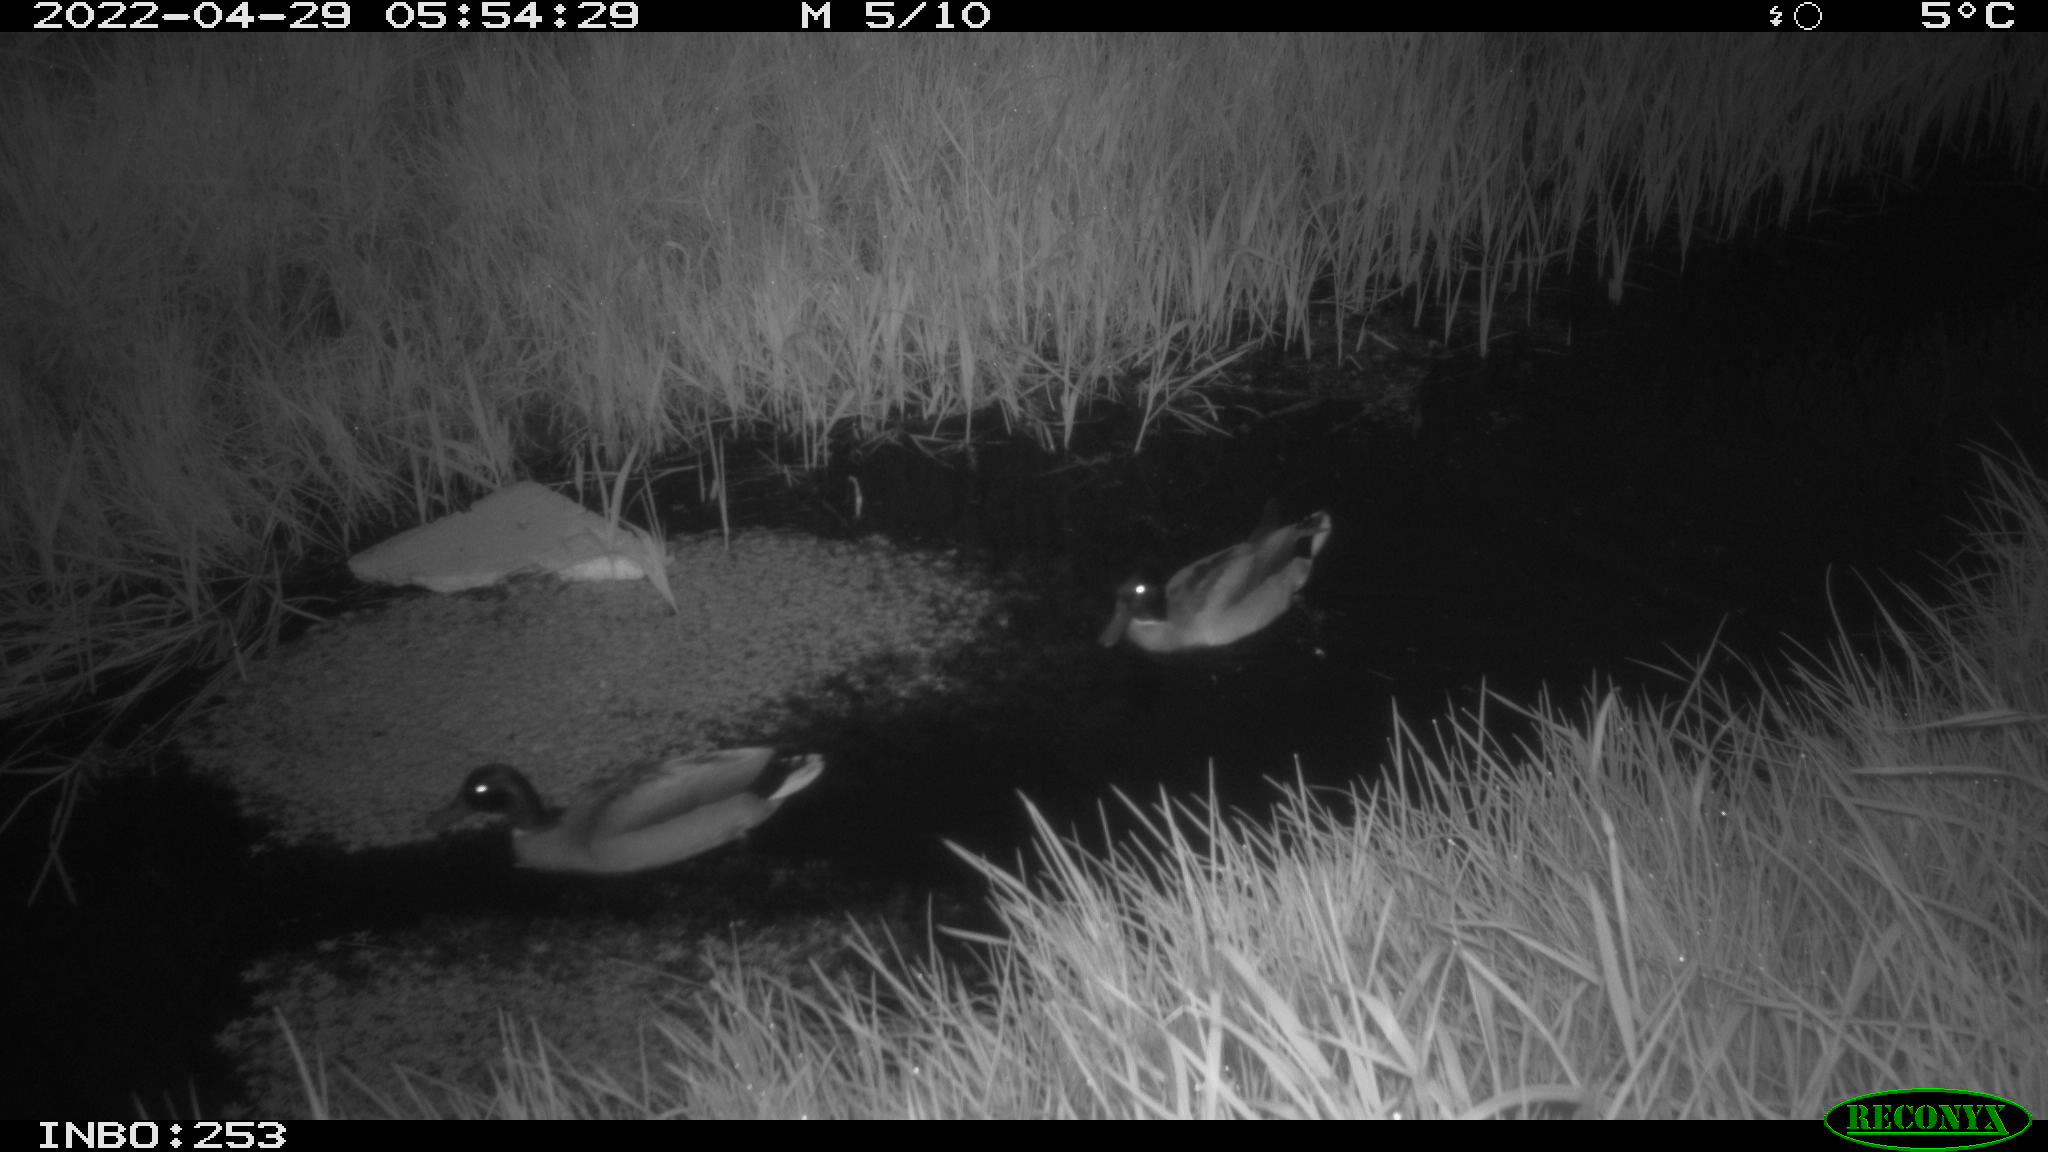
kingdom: Animalia
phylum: Chordata
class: Aves
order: Anseriformes
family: Anatidae
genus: Anas
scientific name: Anas platyrhynchos
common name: Mallard
